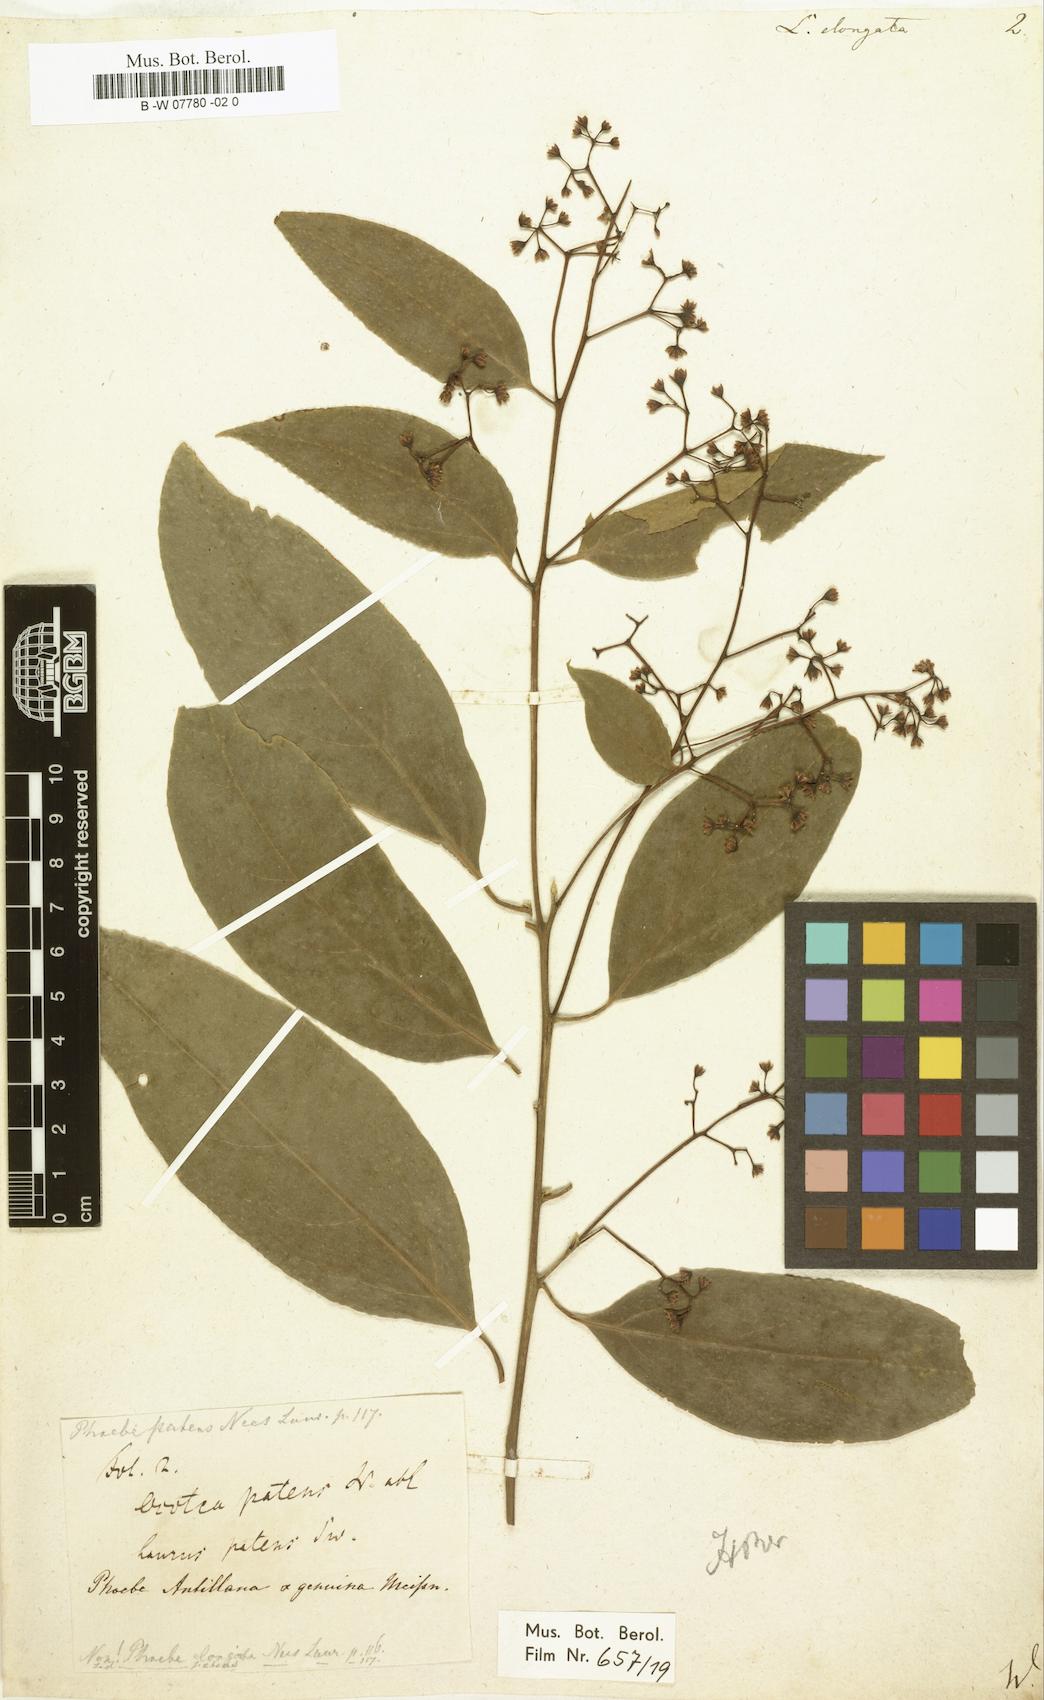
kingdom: Plantae
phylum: Tracheophyta
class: Magnoliopsida
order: Laurales
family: Lauraceae
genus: Damburneya
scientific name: Damburneya patens
